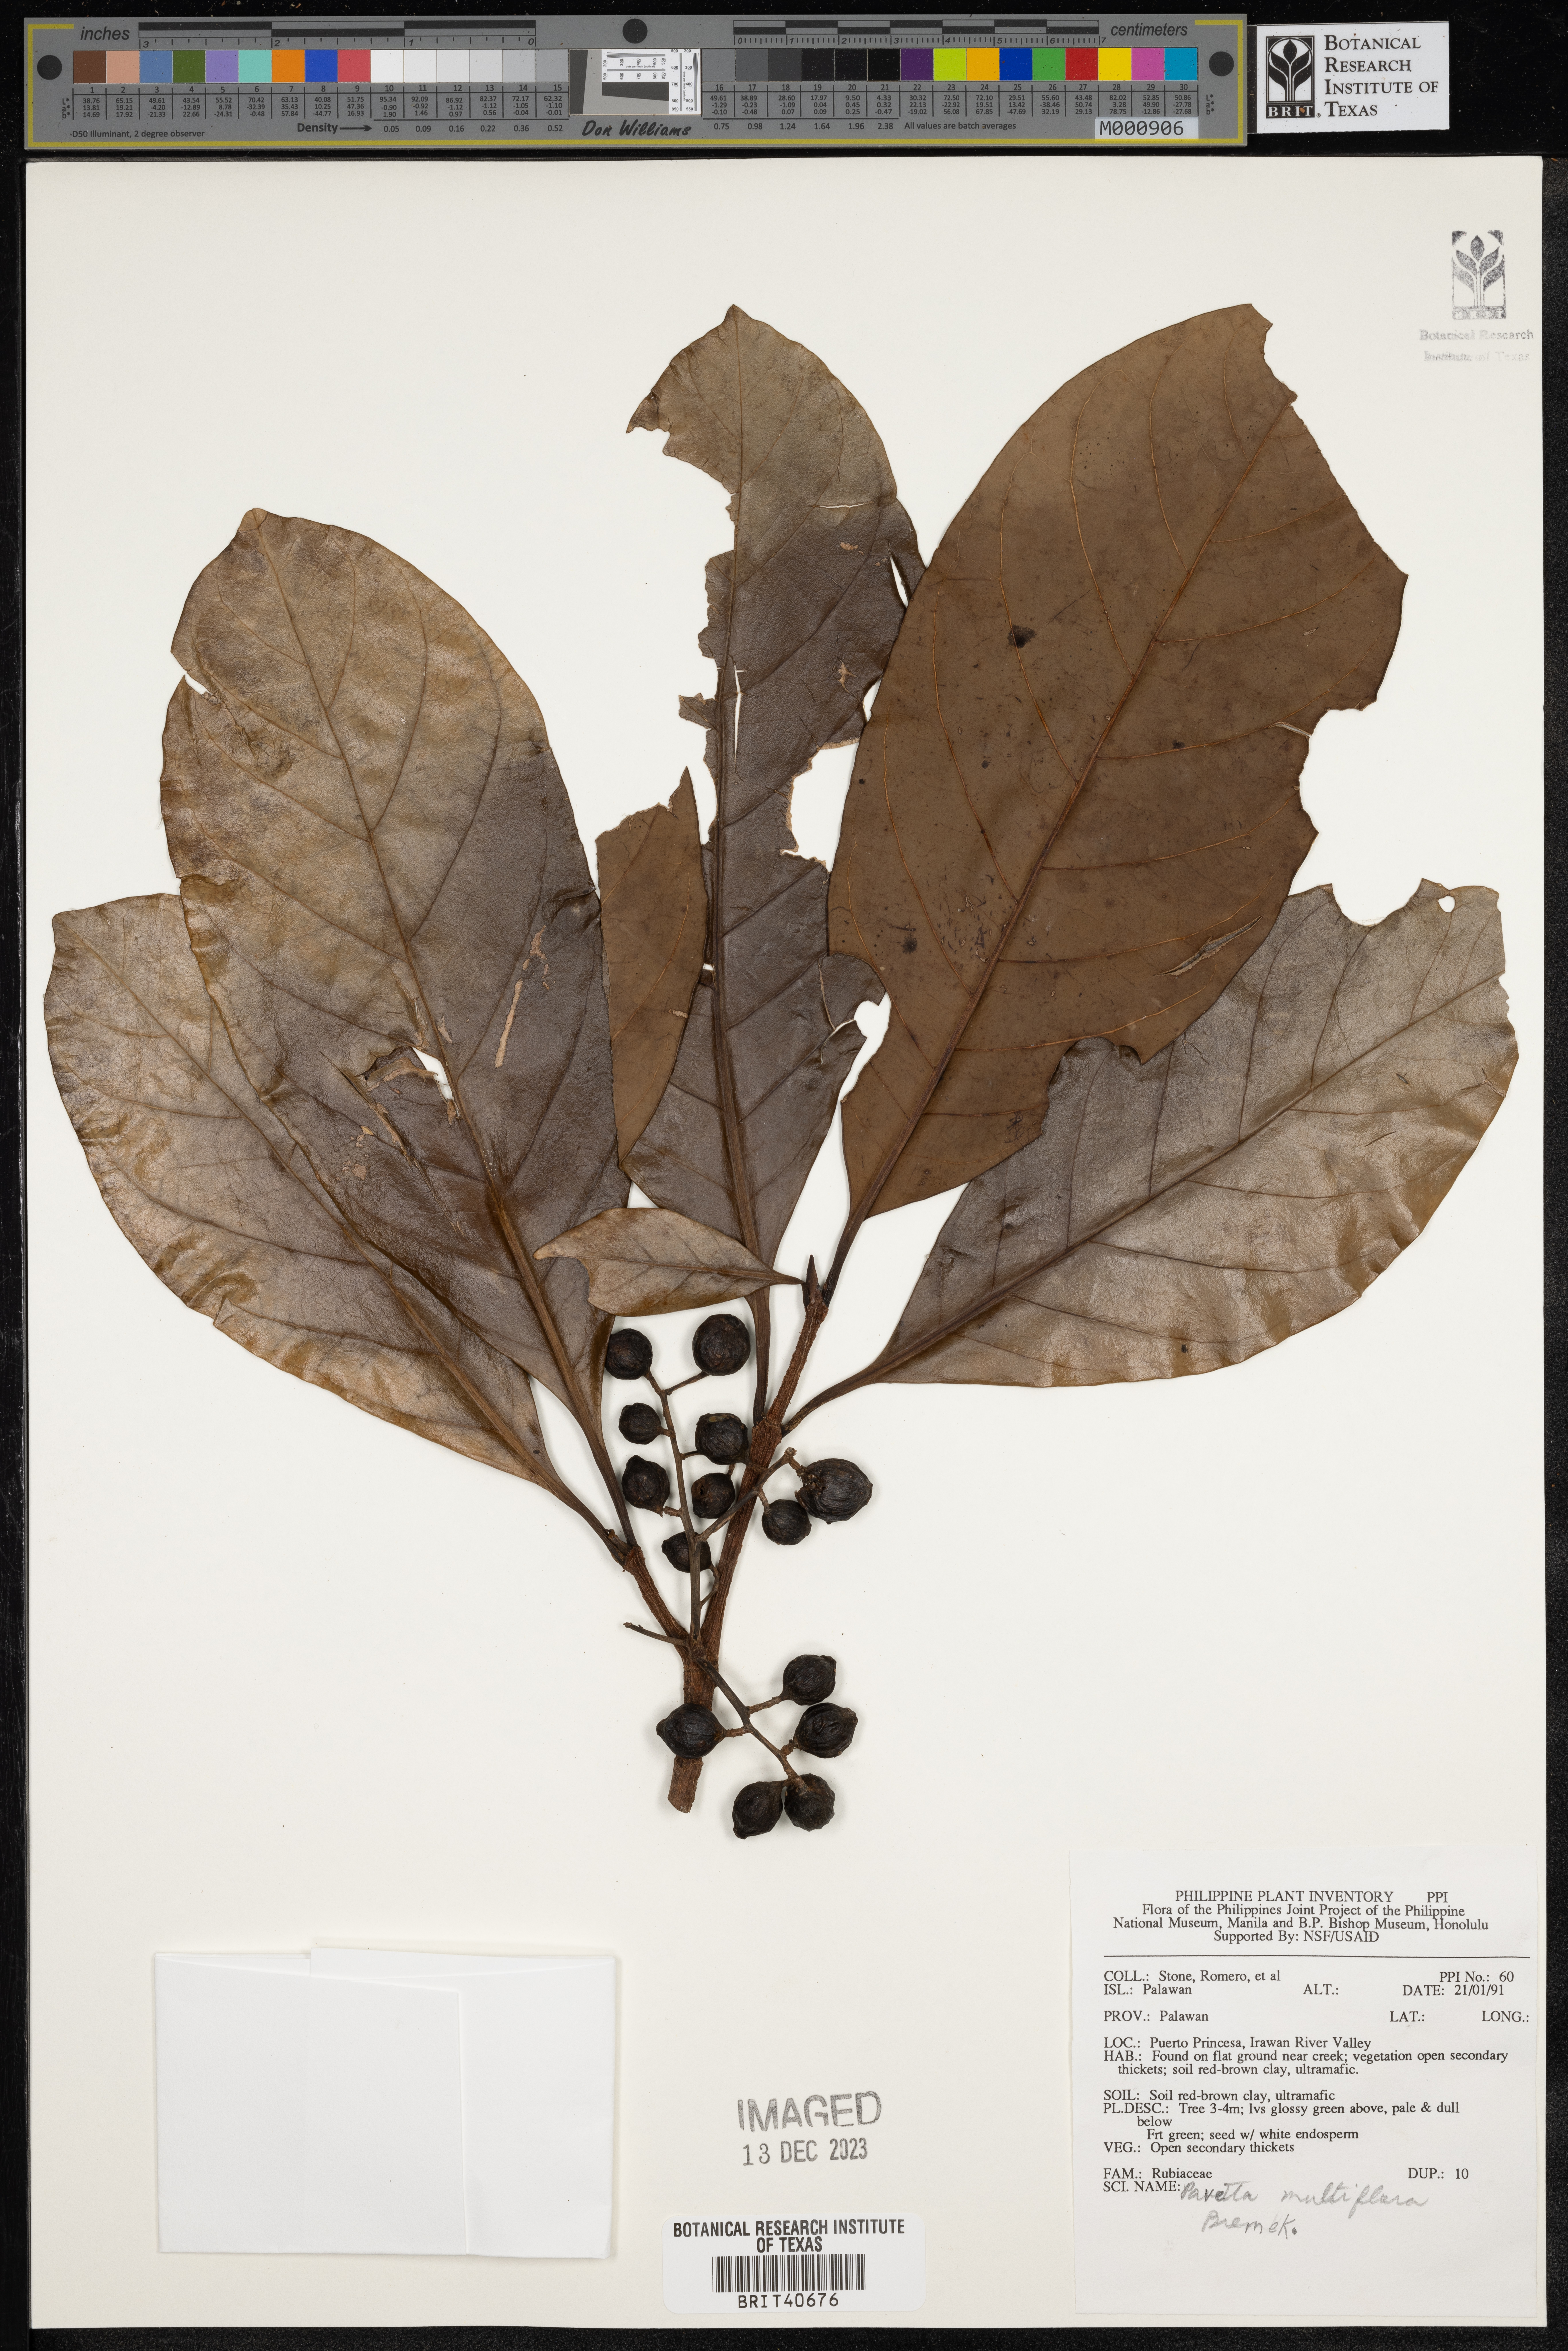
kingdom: Plantae
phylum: Tracheophyta
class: Magnoliopsida
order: Gentianales
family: Rubiaceae
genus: Pavetta
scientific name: Pavetta multiflora
